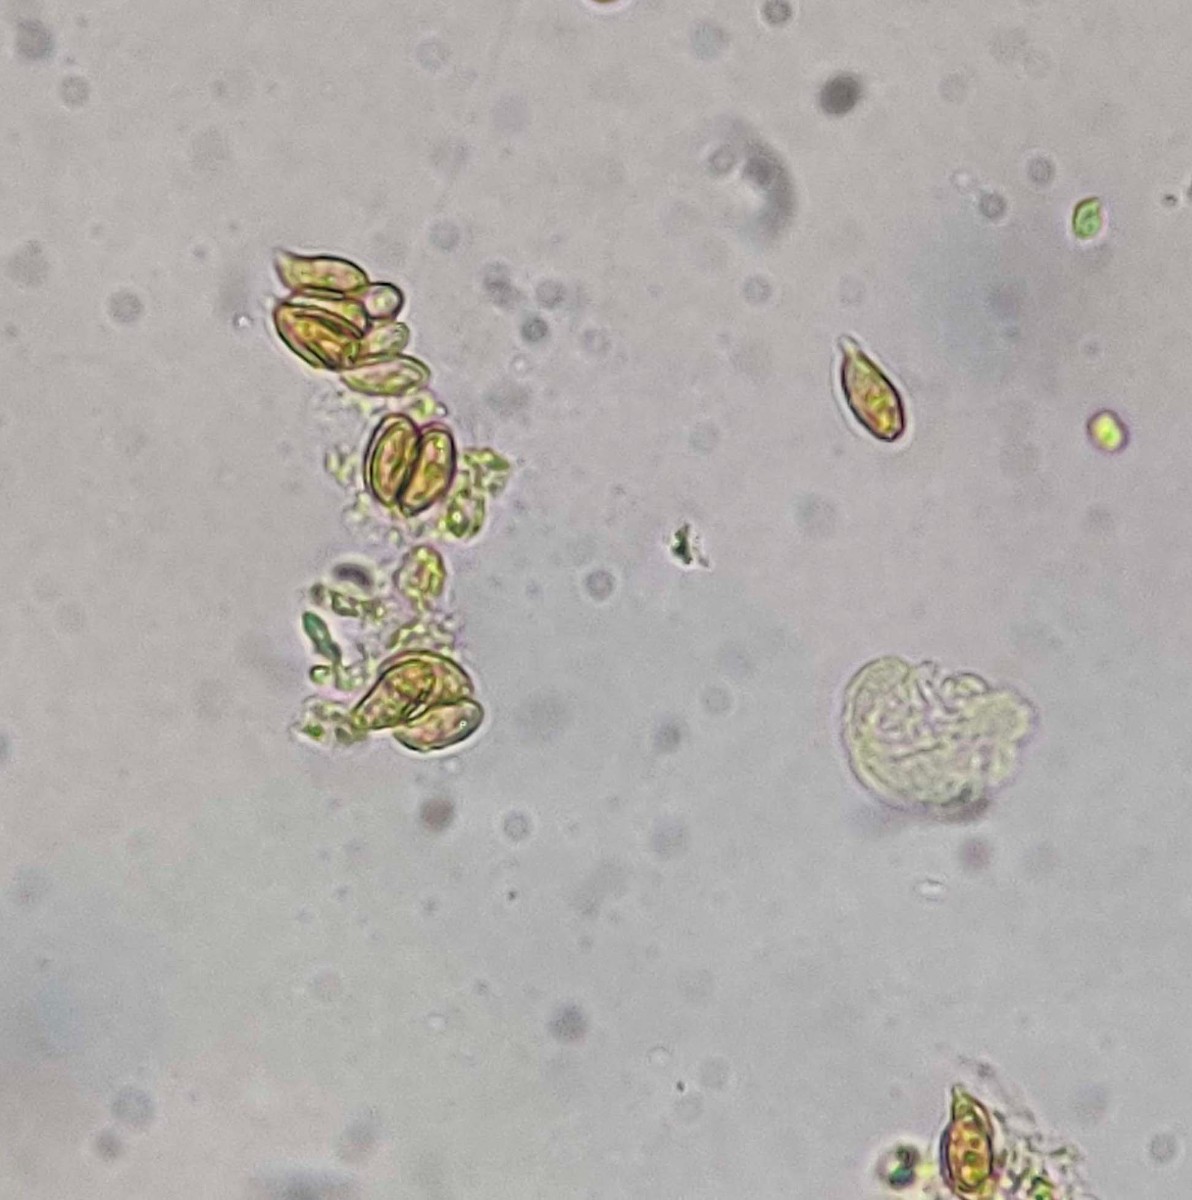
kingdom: Fungi
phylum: Basidiomycota
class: Agaricomycetes
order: Gomphales
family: Lentariaceae
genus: Kavinia
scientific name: Kavinia alboviridis
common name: grøn koralpig
